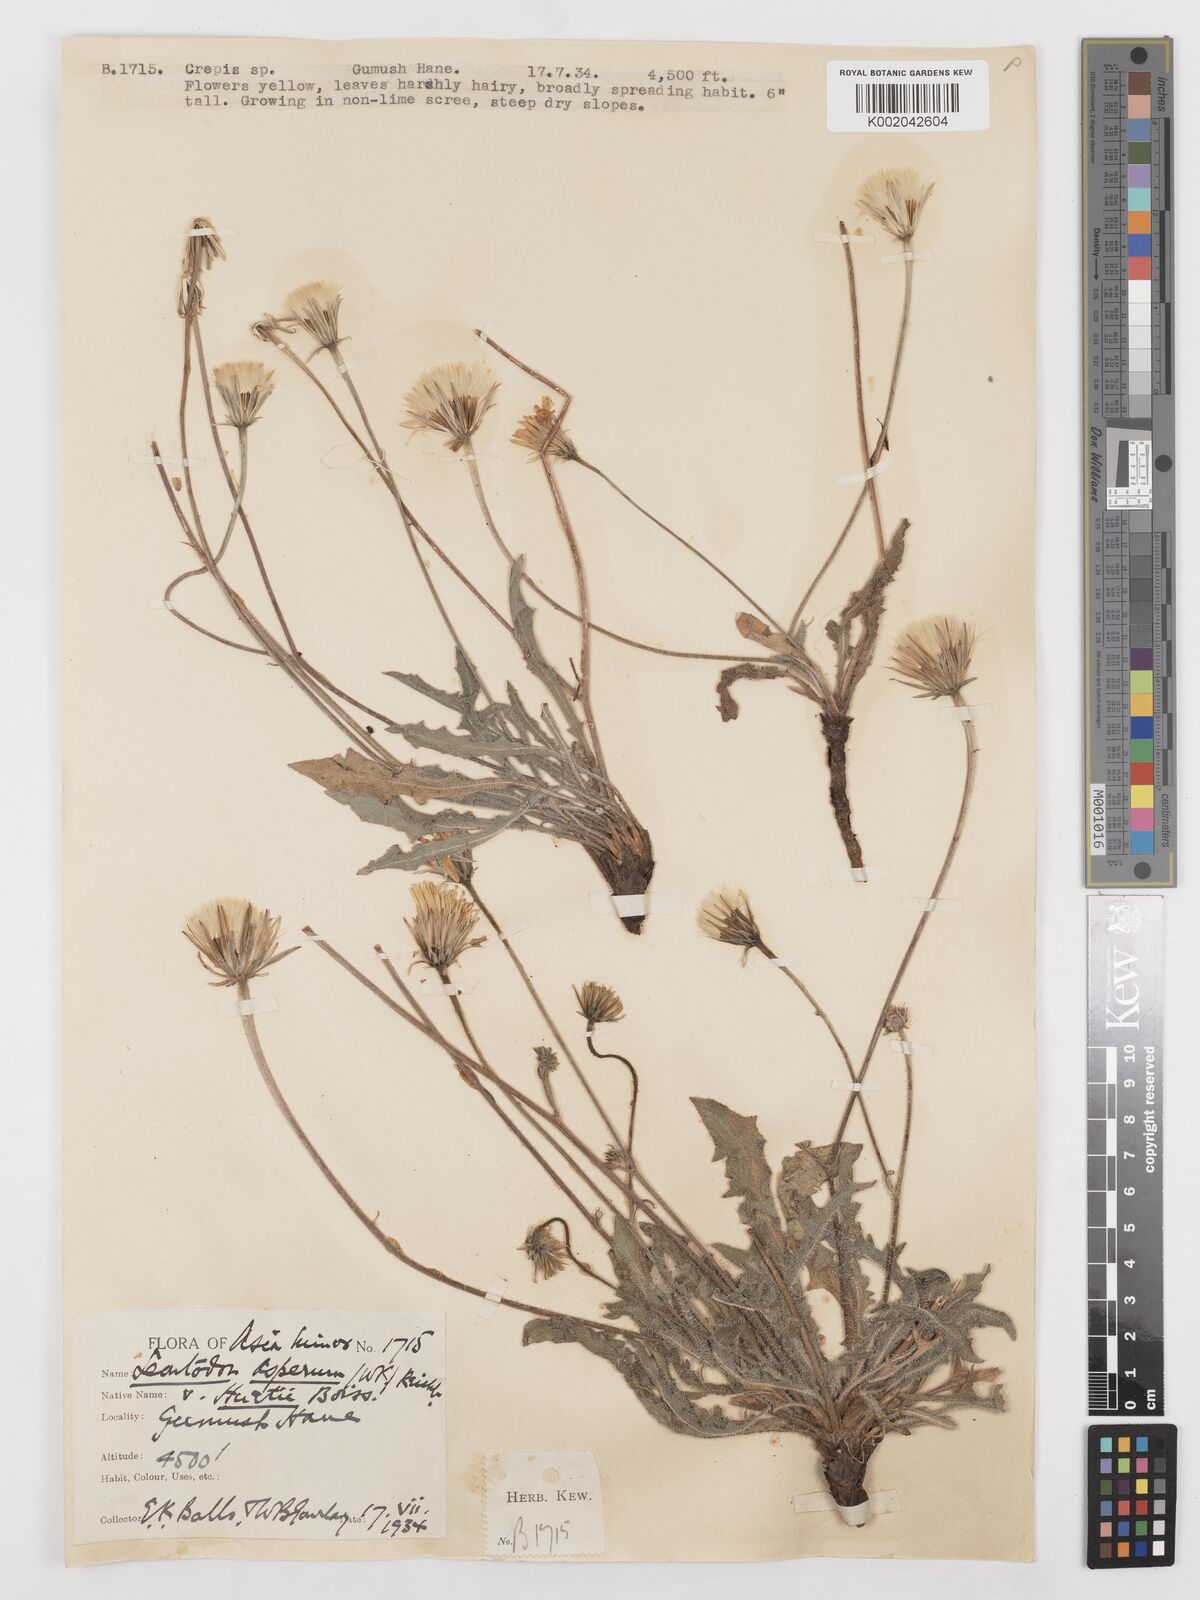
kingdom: Plantae
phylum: Tracheophyta
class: Magnoliopsida
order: Asterales
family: Asteraceae
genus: Leontodon
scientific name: Leontodon
